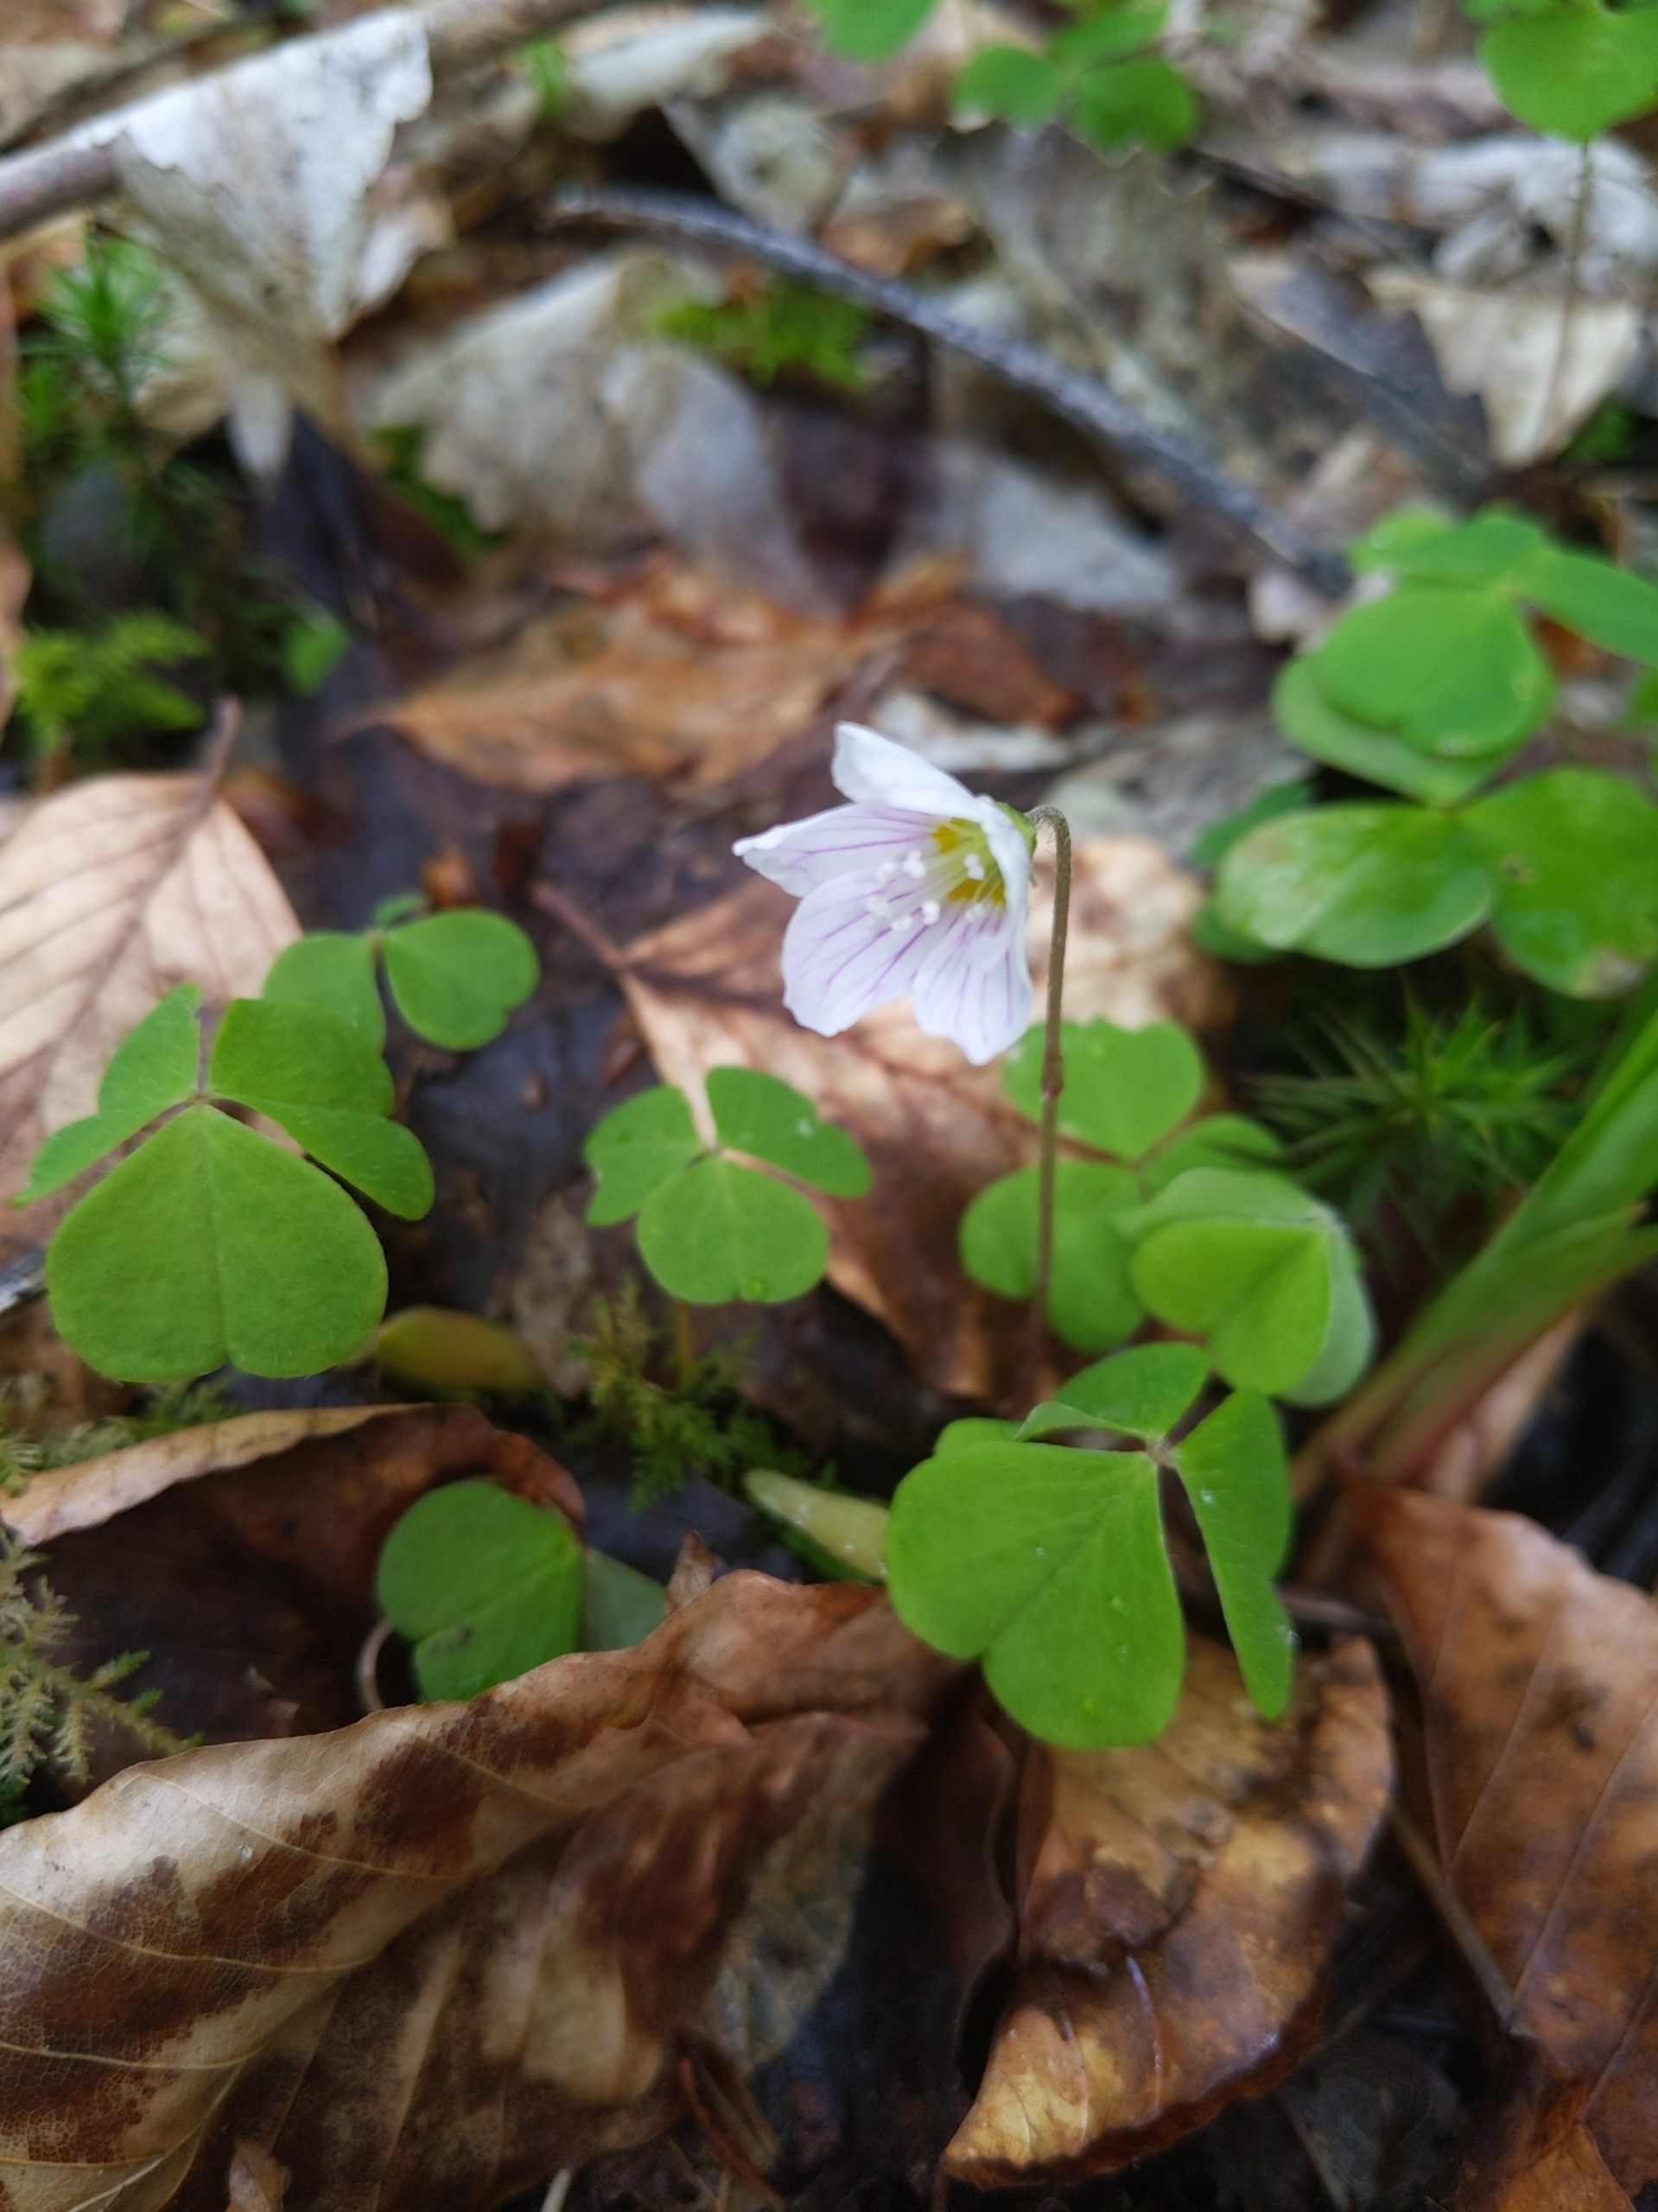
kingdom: Plantae
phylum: Tracheophyta
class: Magnoliopsida
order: Oxalidales
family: Oxalidaceae
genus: Oxalis
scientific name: Oxalis acetosella
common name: Skovsyre
